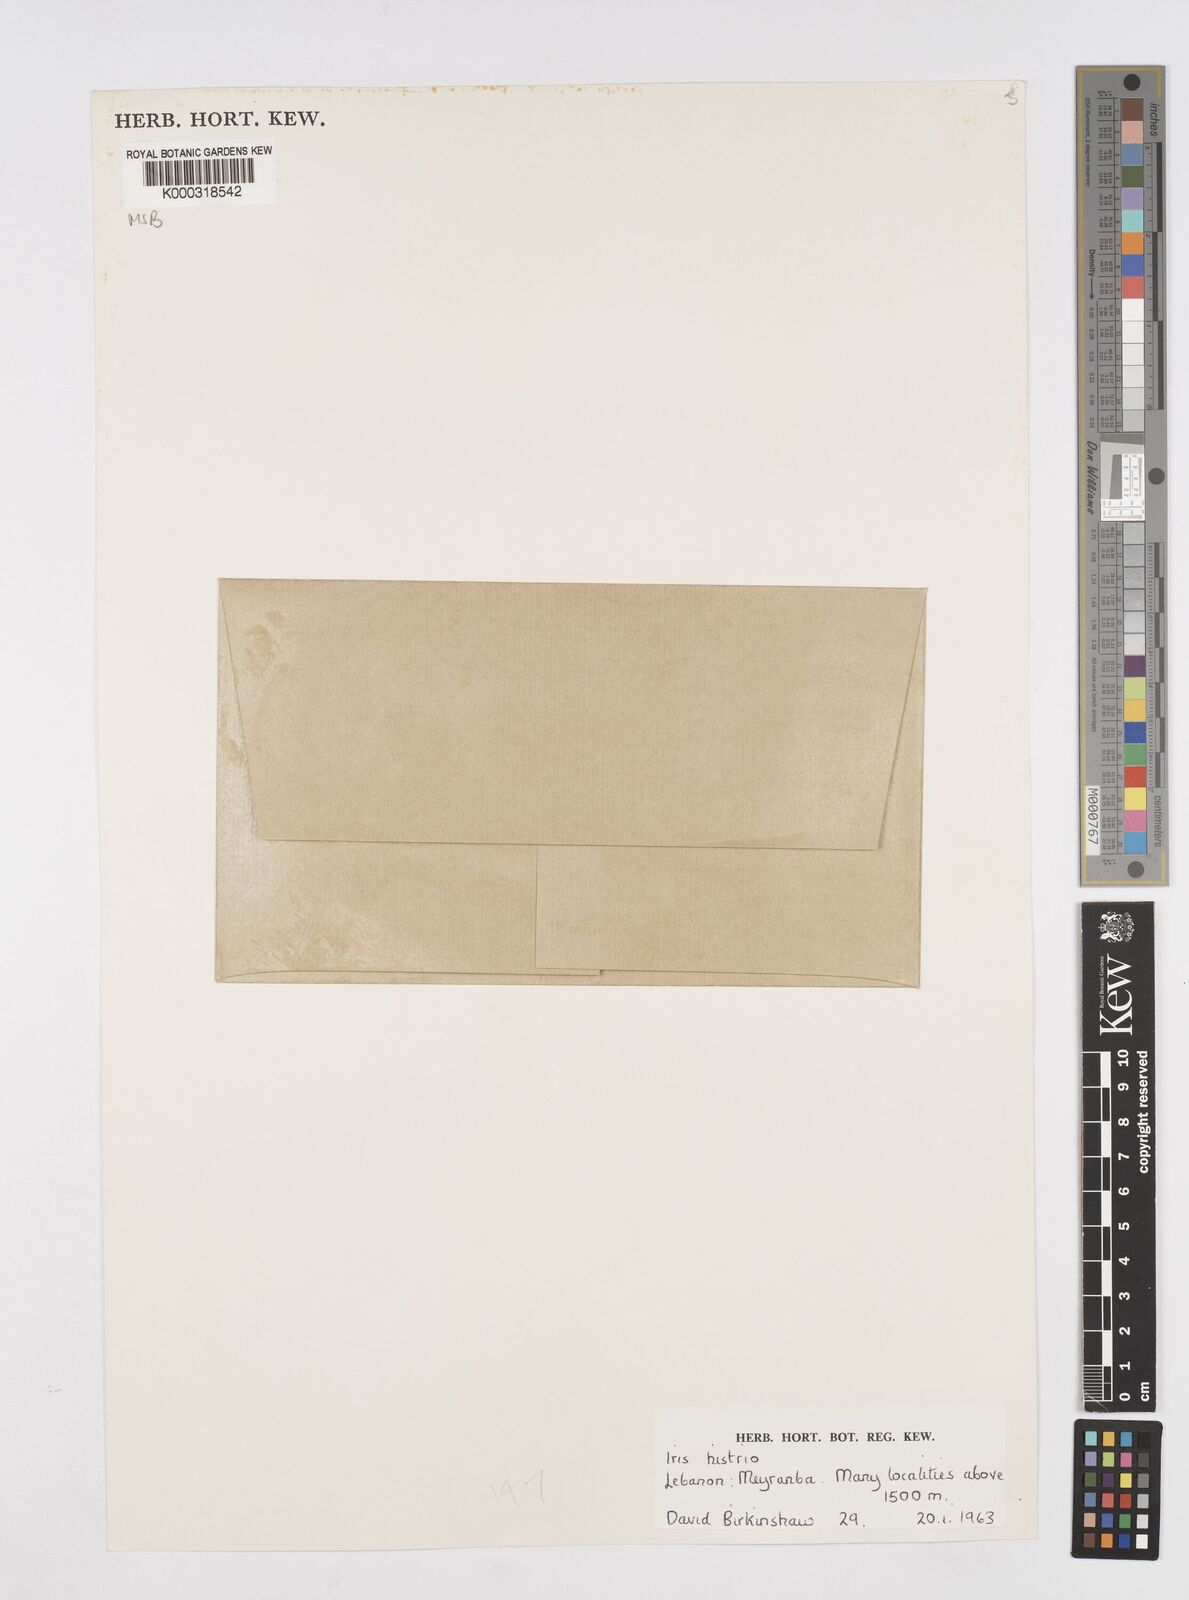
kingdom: Plantae
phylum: Tracheophyta
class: Liliopsida
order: Asparagales
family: Iridaceae
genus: Iris
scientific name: Iris histrio
